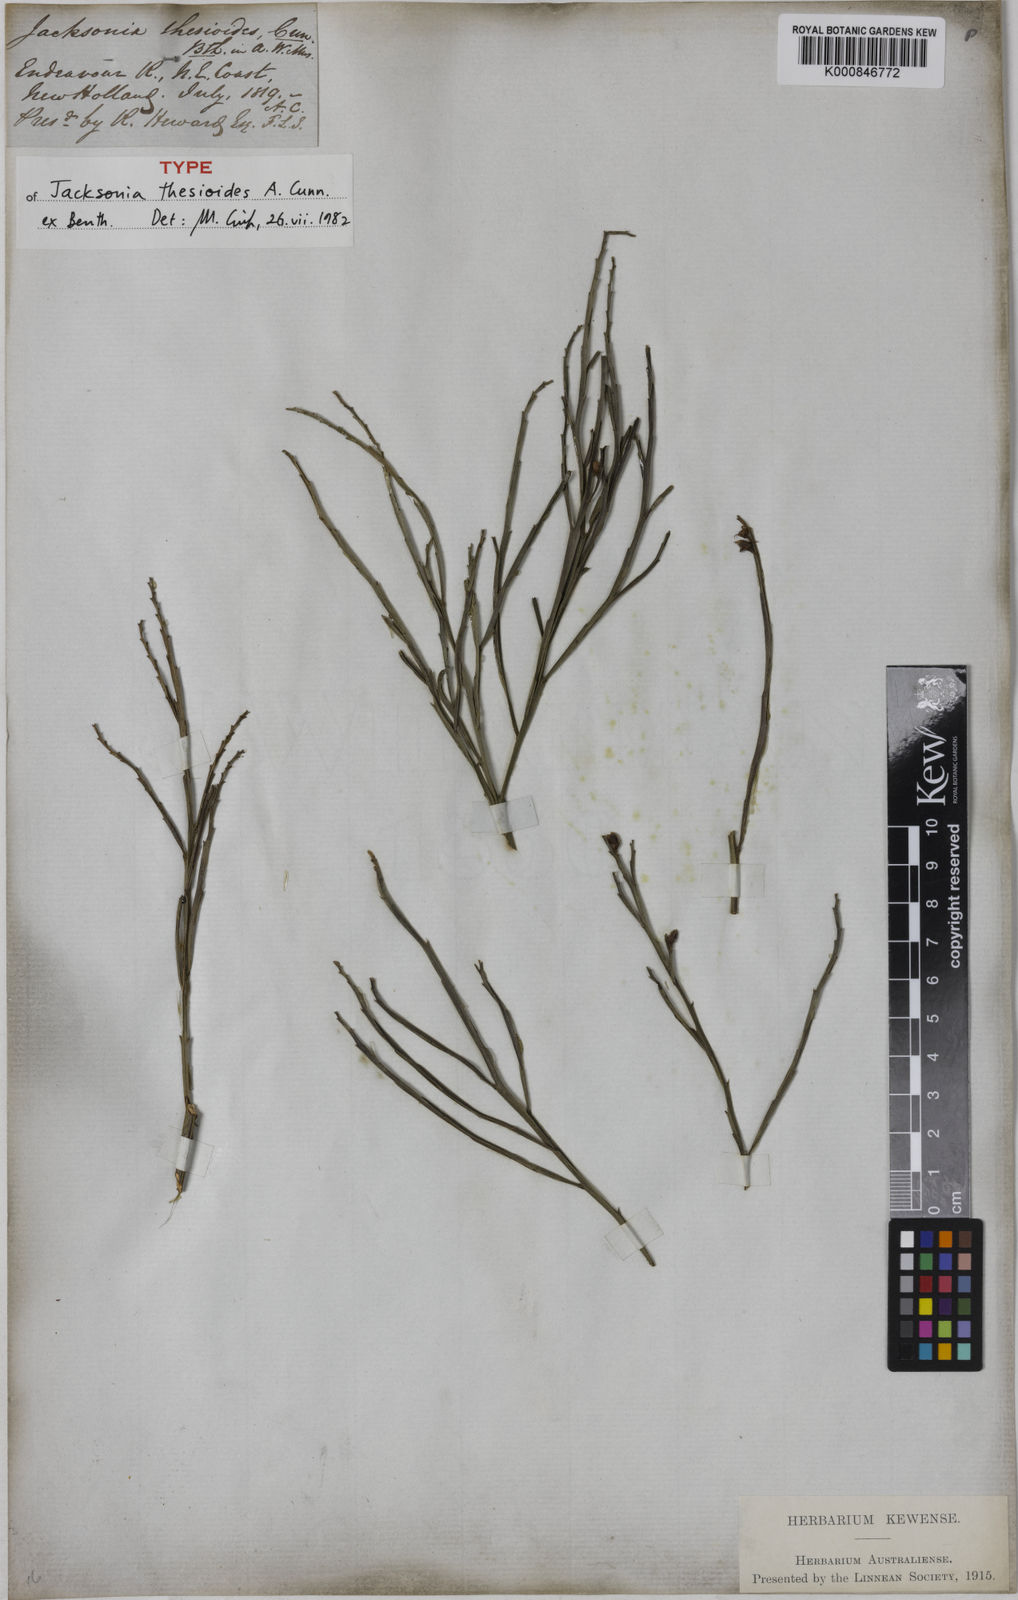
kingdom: Plantae
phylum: Tracheophyta
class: Magnoliopsida
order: Fabales
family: Fabaceae
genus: Jacksonia
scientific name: Jacksonia thesioides
